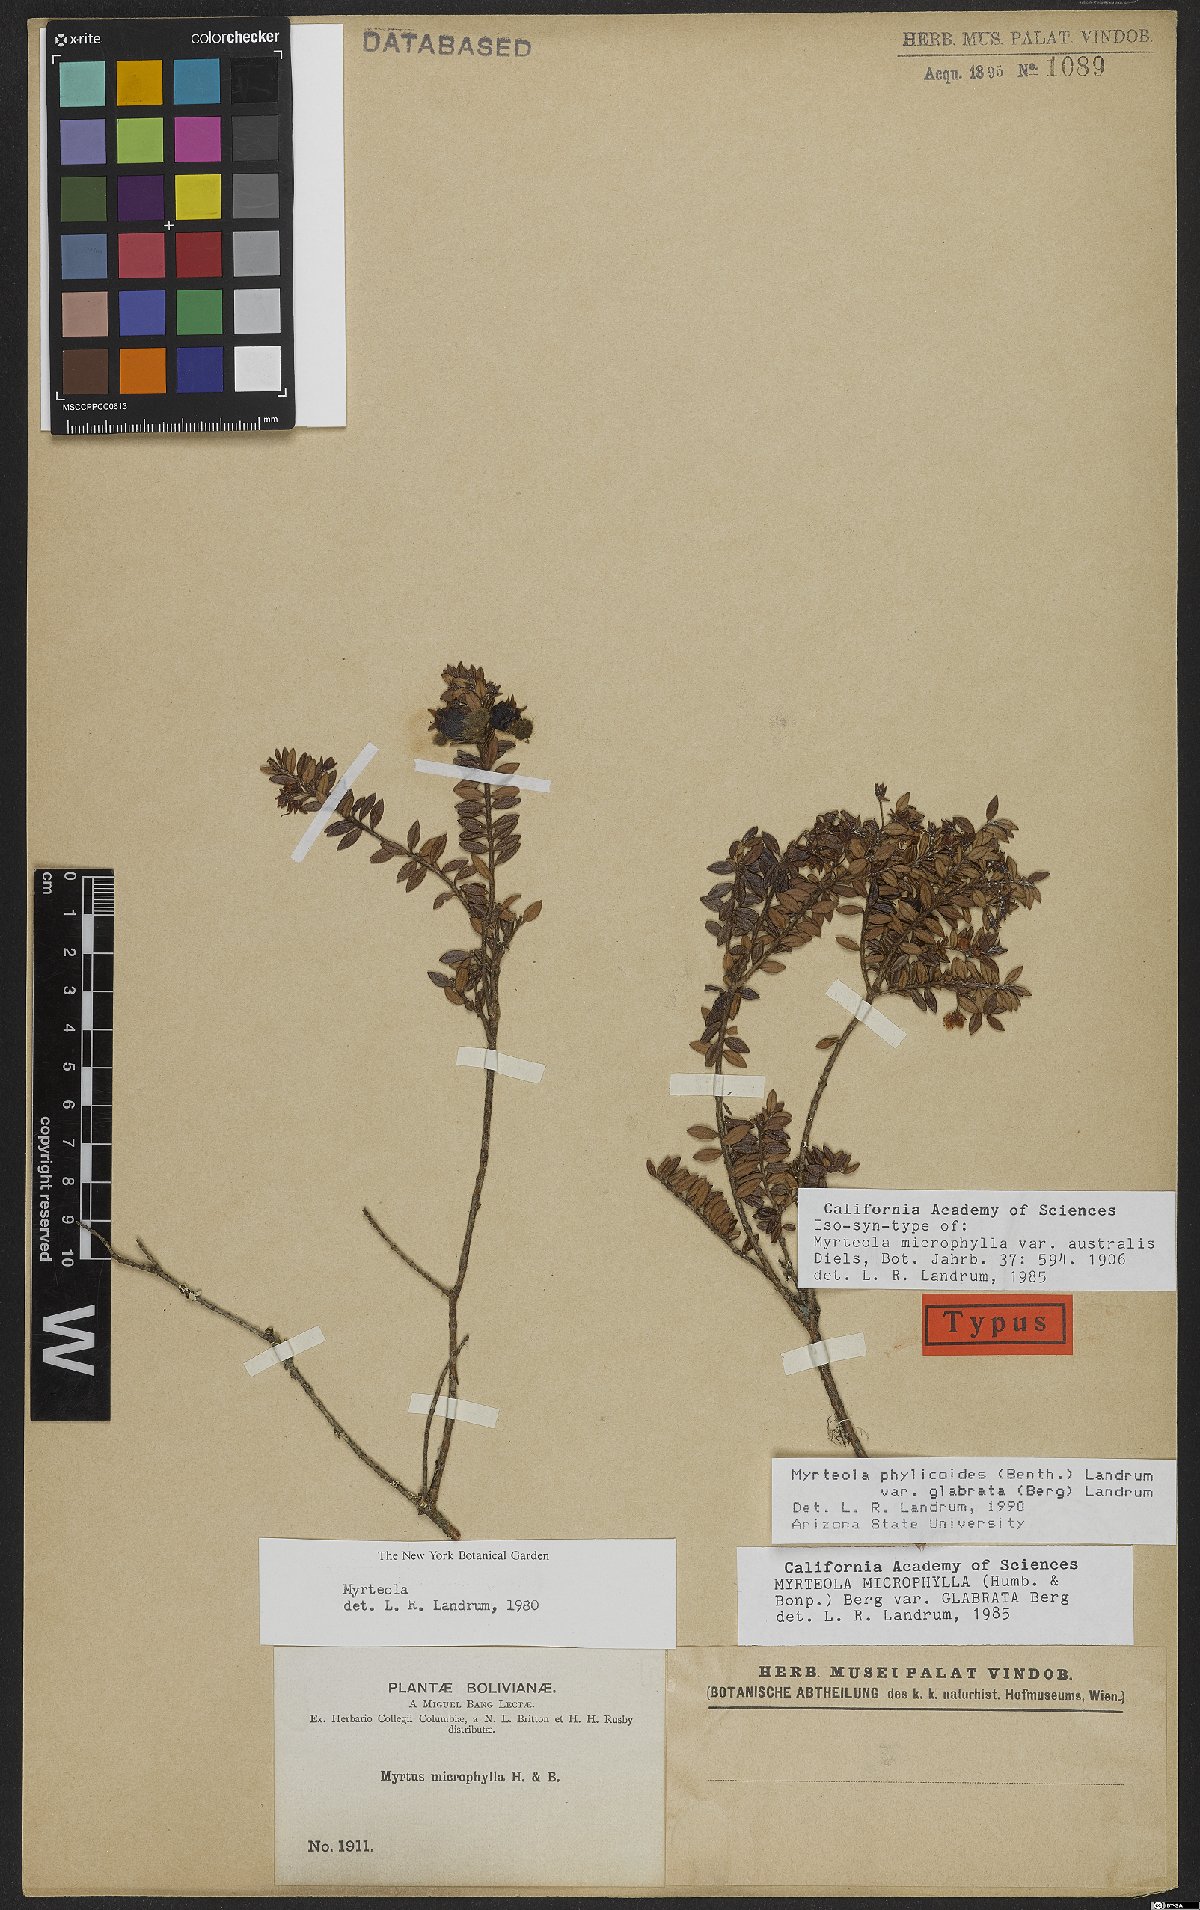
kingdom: Plantae
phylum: Tracheophyta
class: Magnoliopsida
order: Myrtales
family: Myrtaceae
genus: Myrteola
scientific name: Myrteola phylicoides
